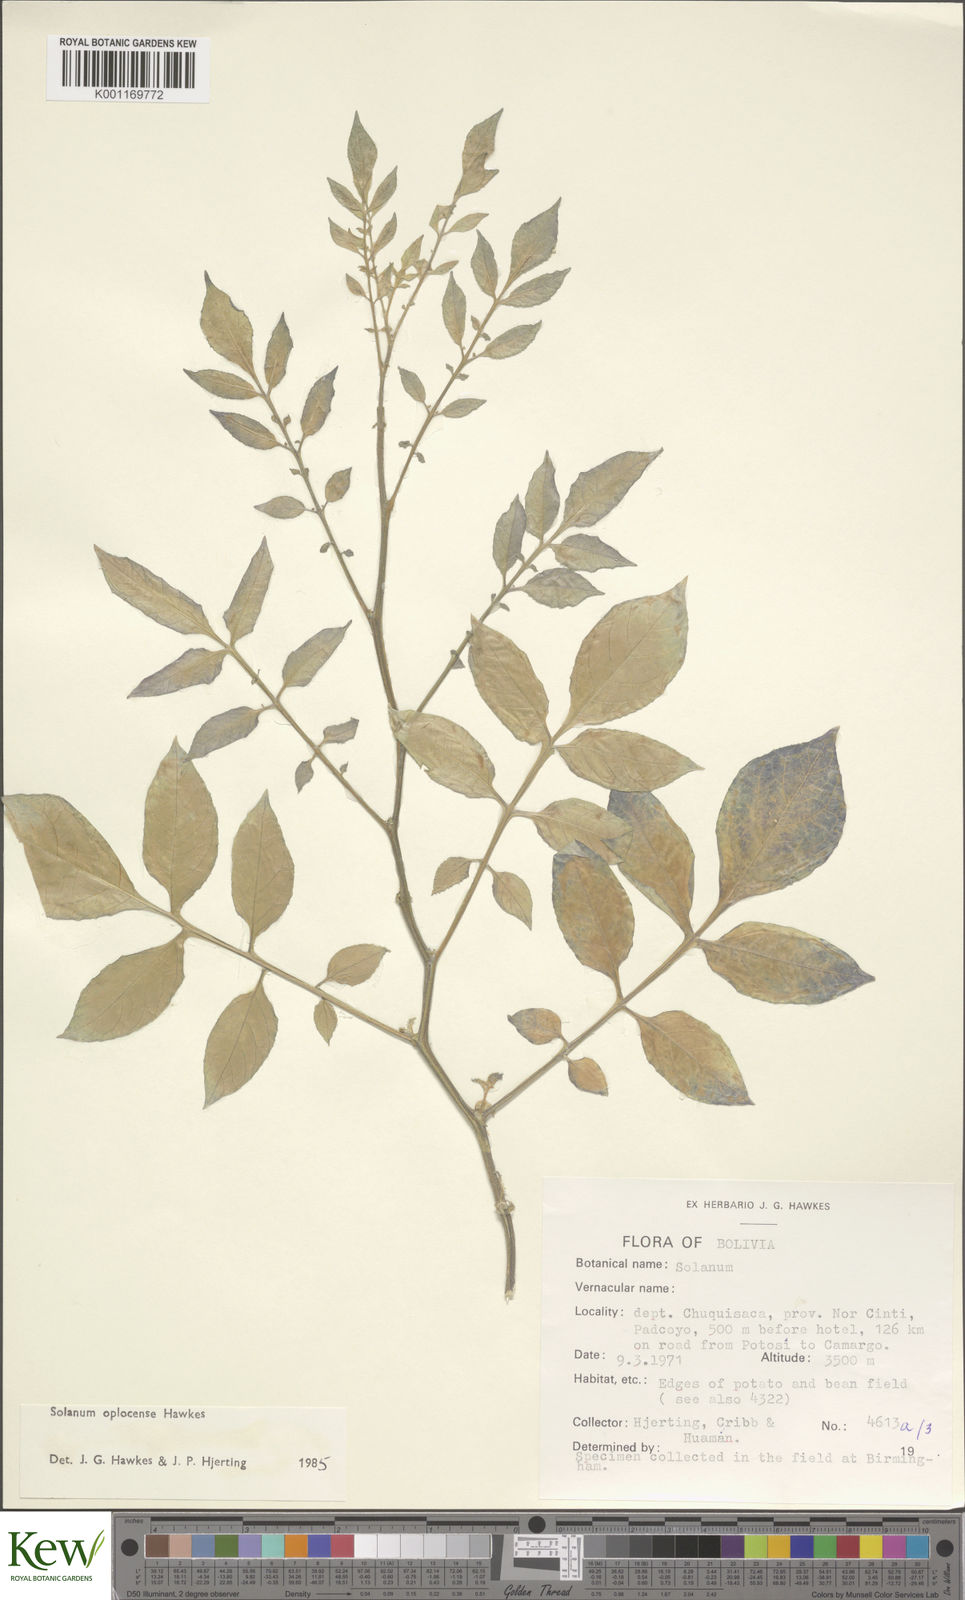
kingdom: Plantae
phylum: Tracheophyta
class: Magnoliopsida
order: Solanales
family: Solanaceae
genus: Solanum
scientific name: Solanum brevicaule
